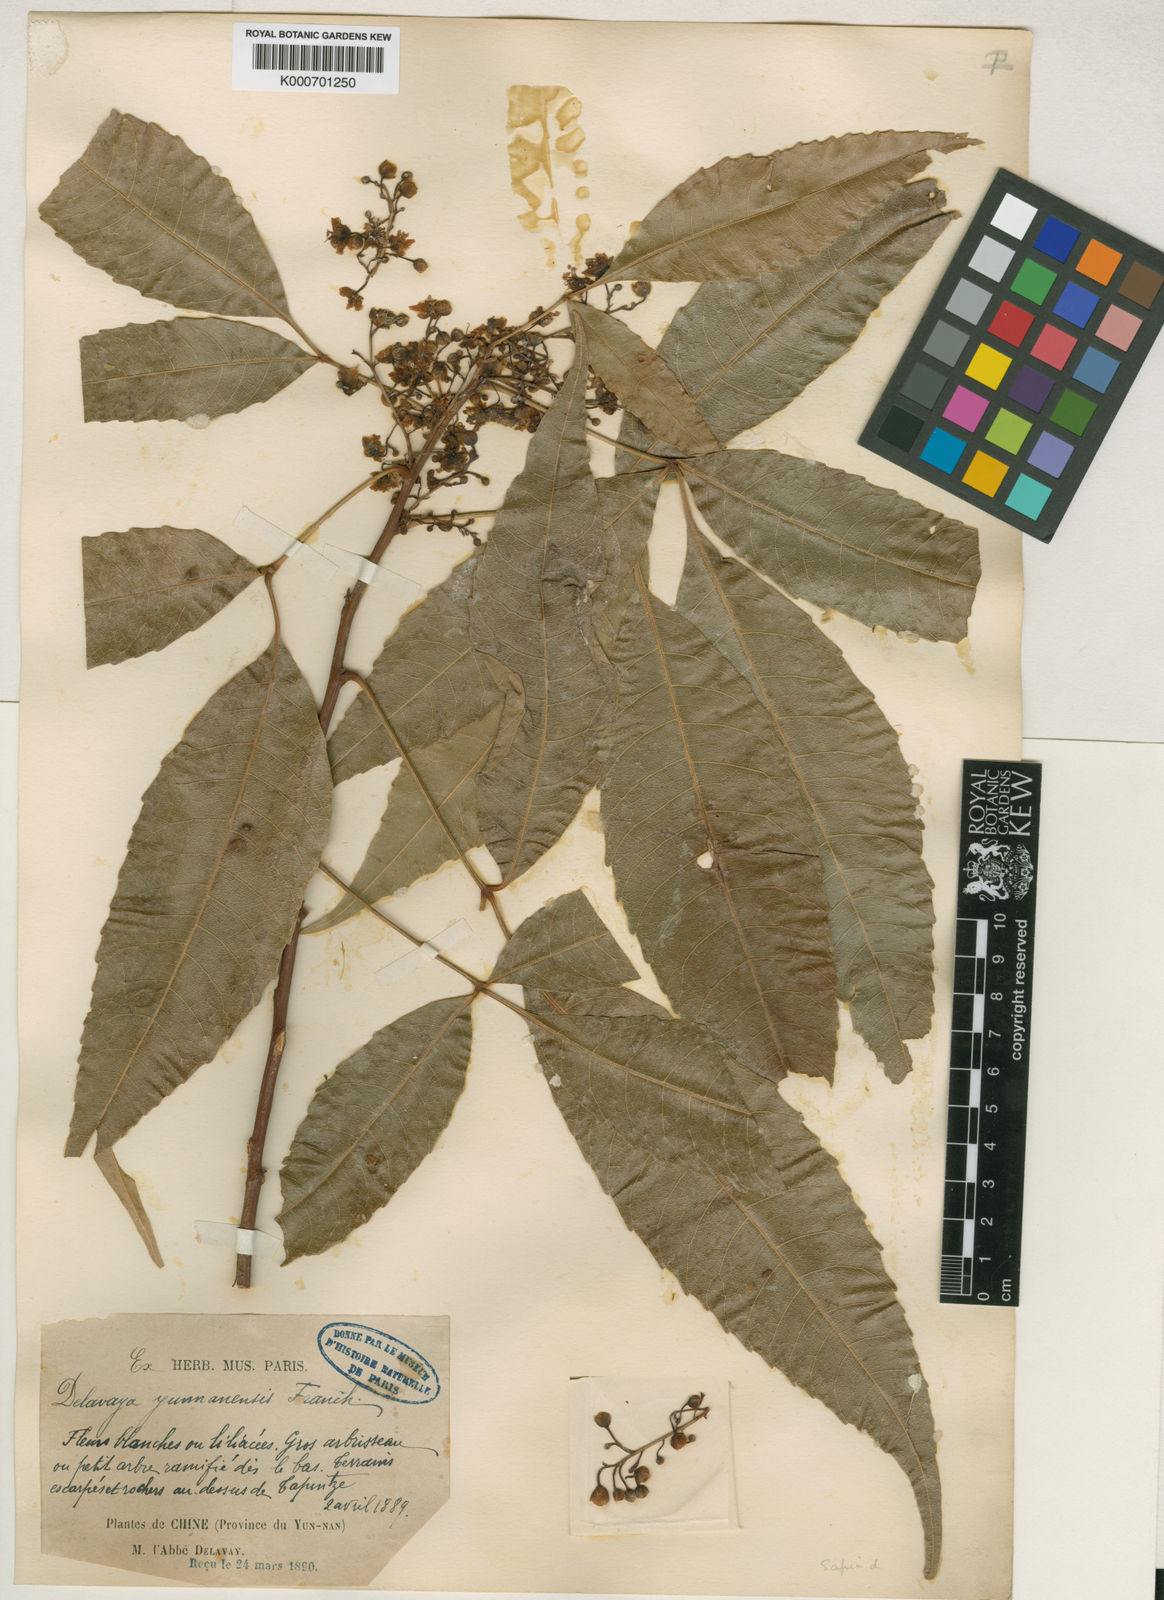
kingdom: Plantae
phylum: Tracheophyta
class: Magnoliopsida
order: Sapindales
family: Sapindaceae
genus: Delavaya
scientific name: Delavaya toxocarpa
